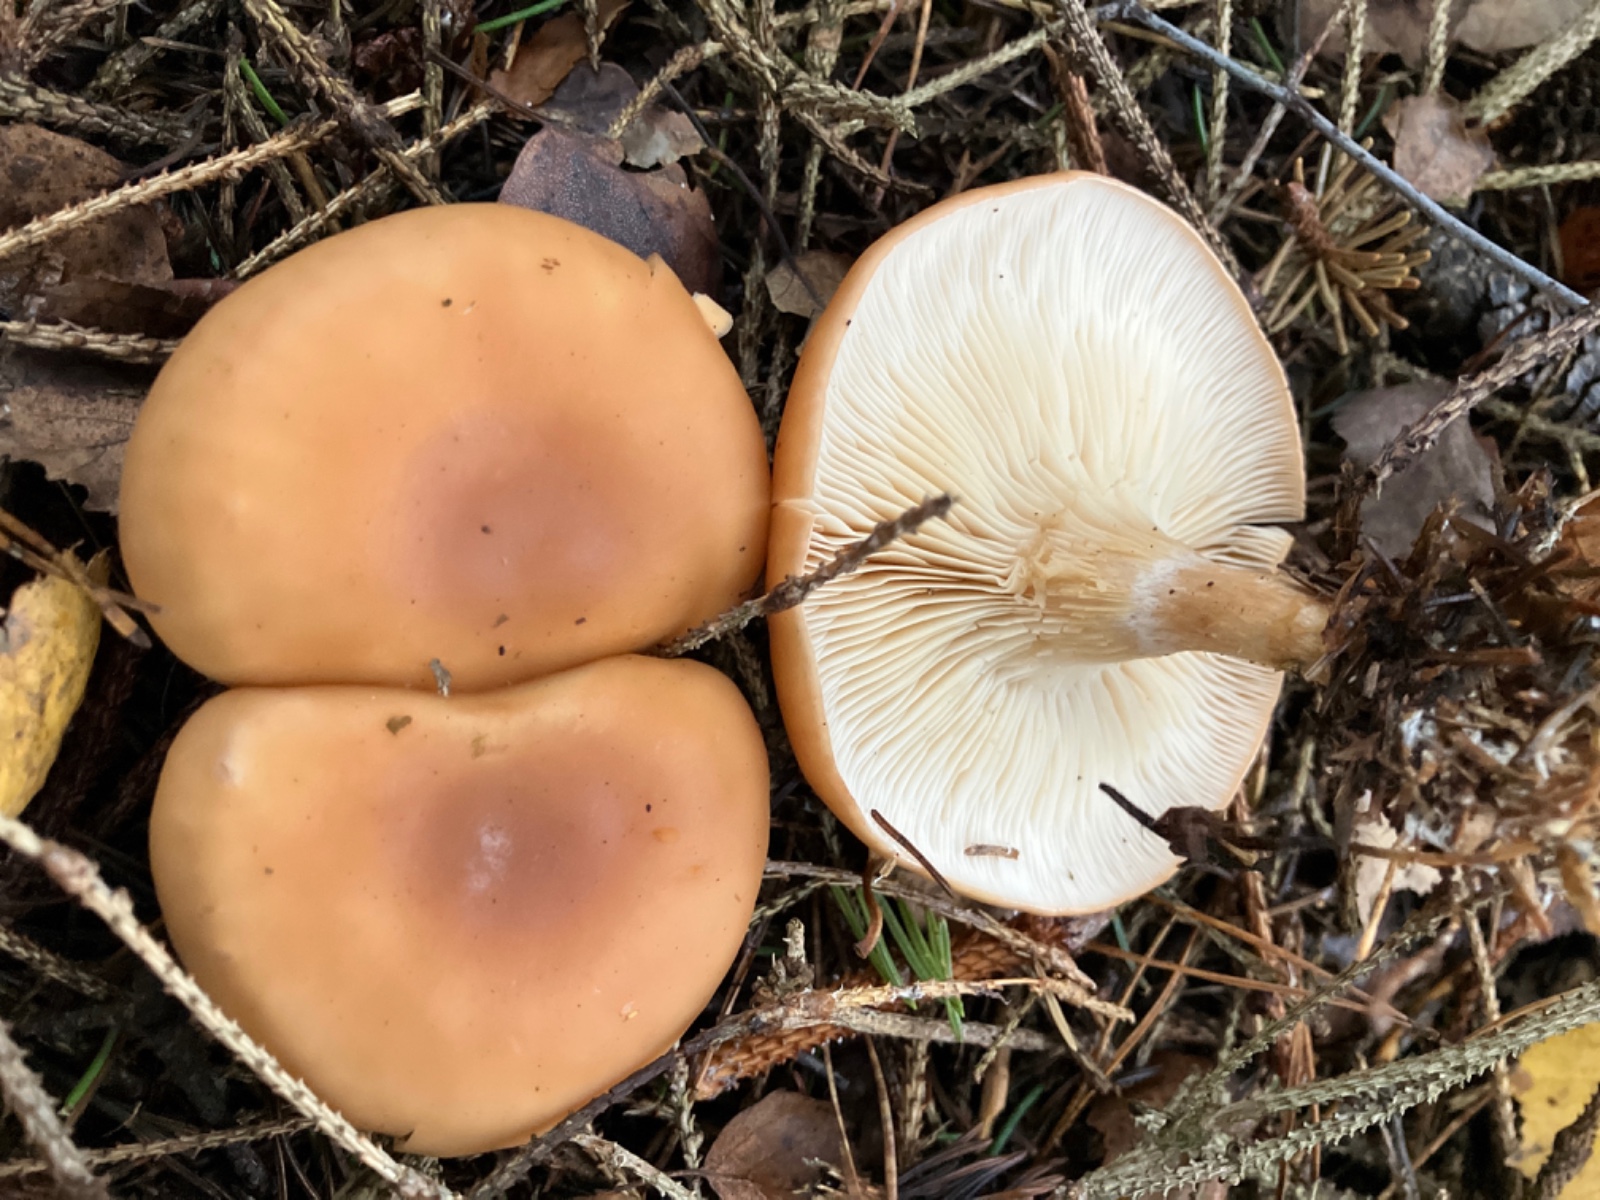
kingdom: Fungi
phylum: Basidiomycota
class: Agaricomycetes
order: Agaricales
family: Tricholomataceae
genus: Paralepista
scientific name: Paralepista flaccida
